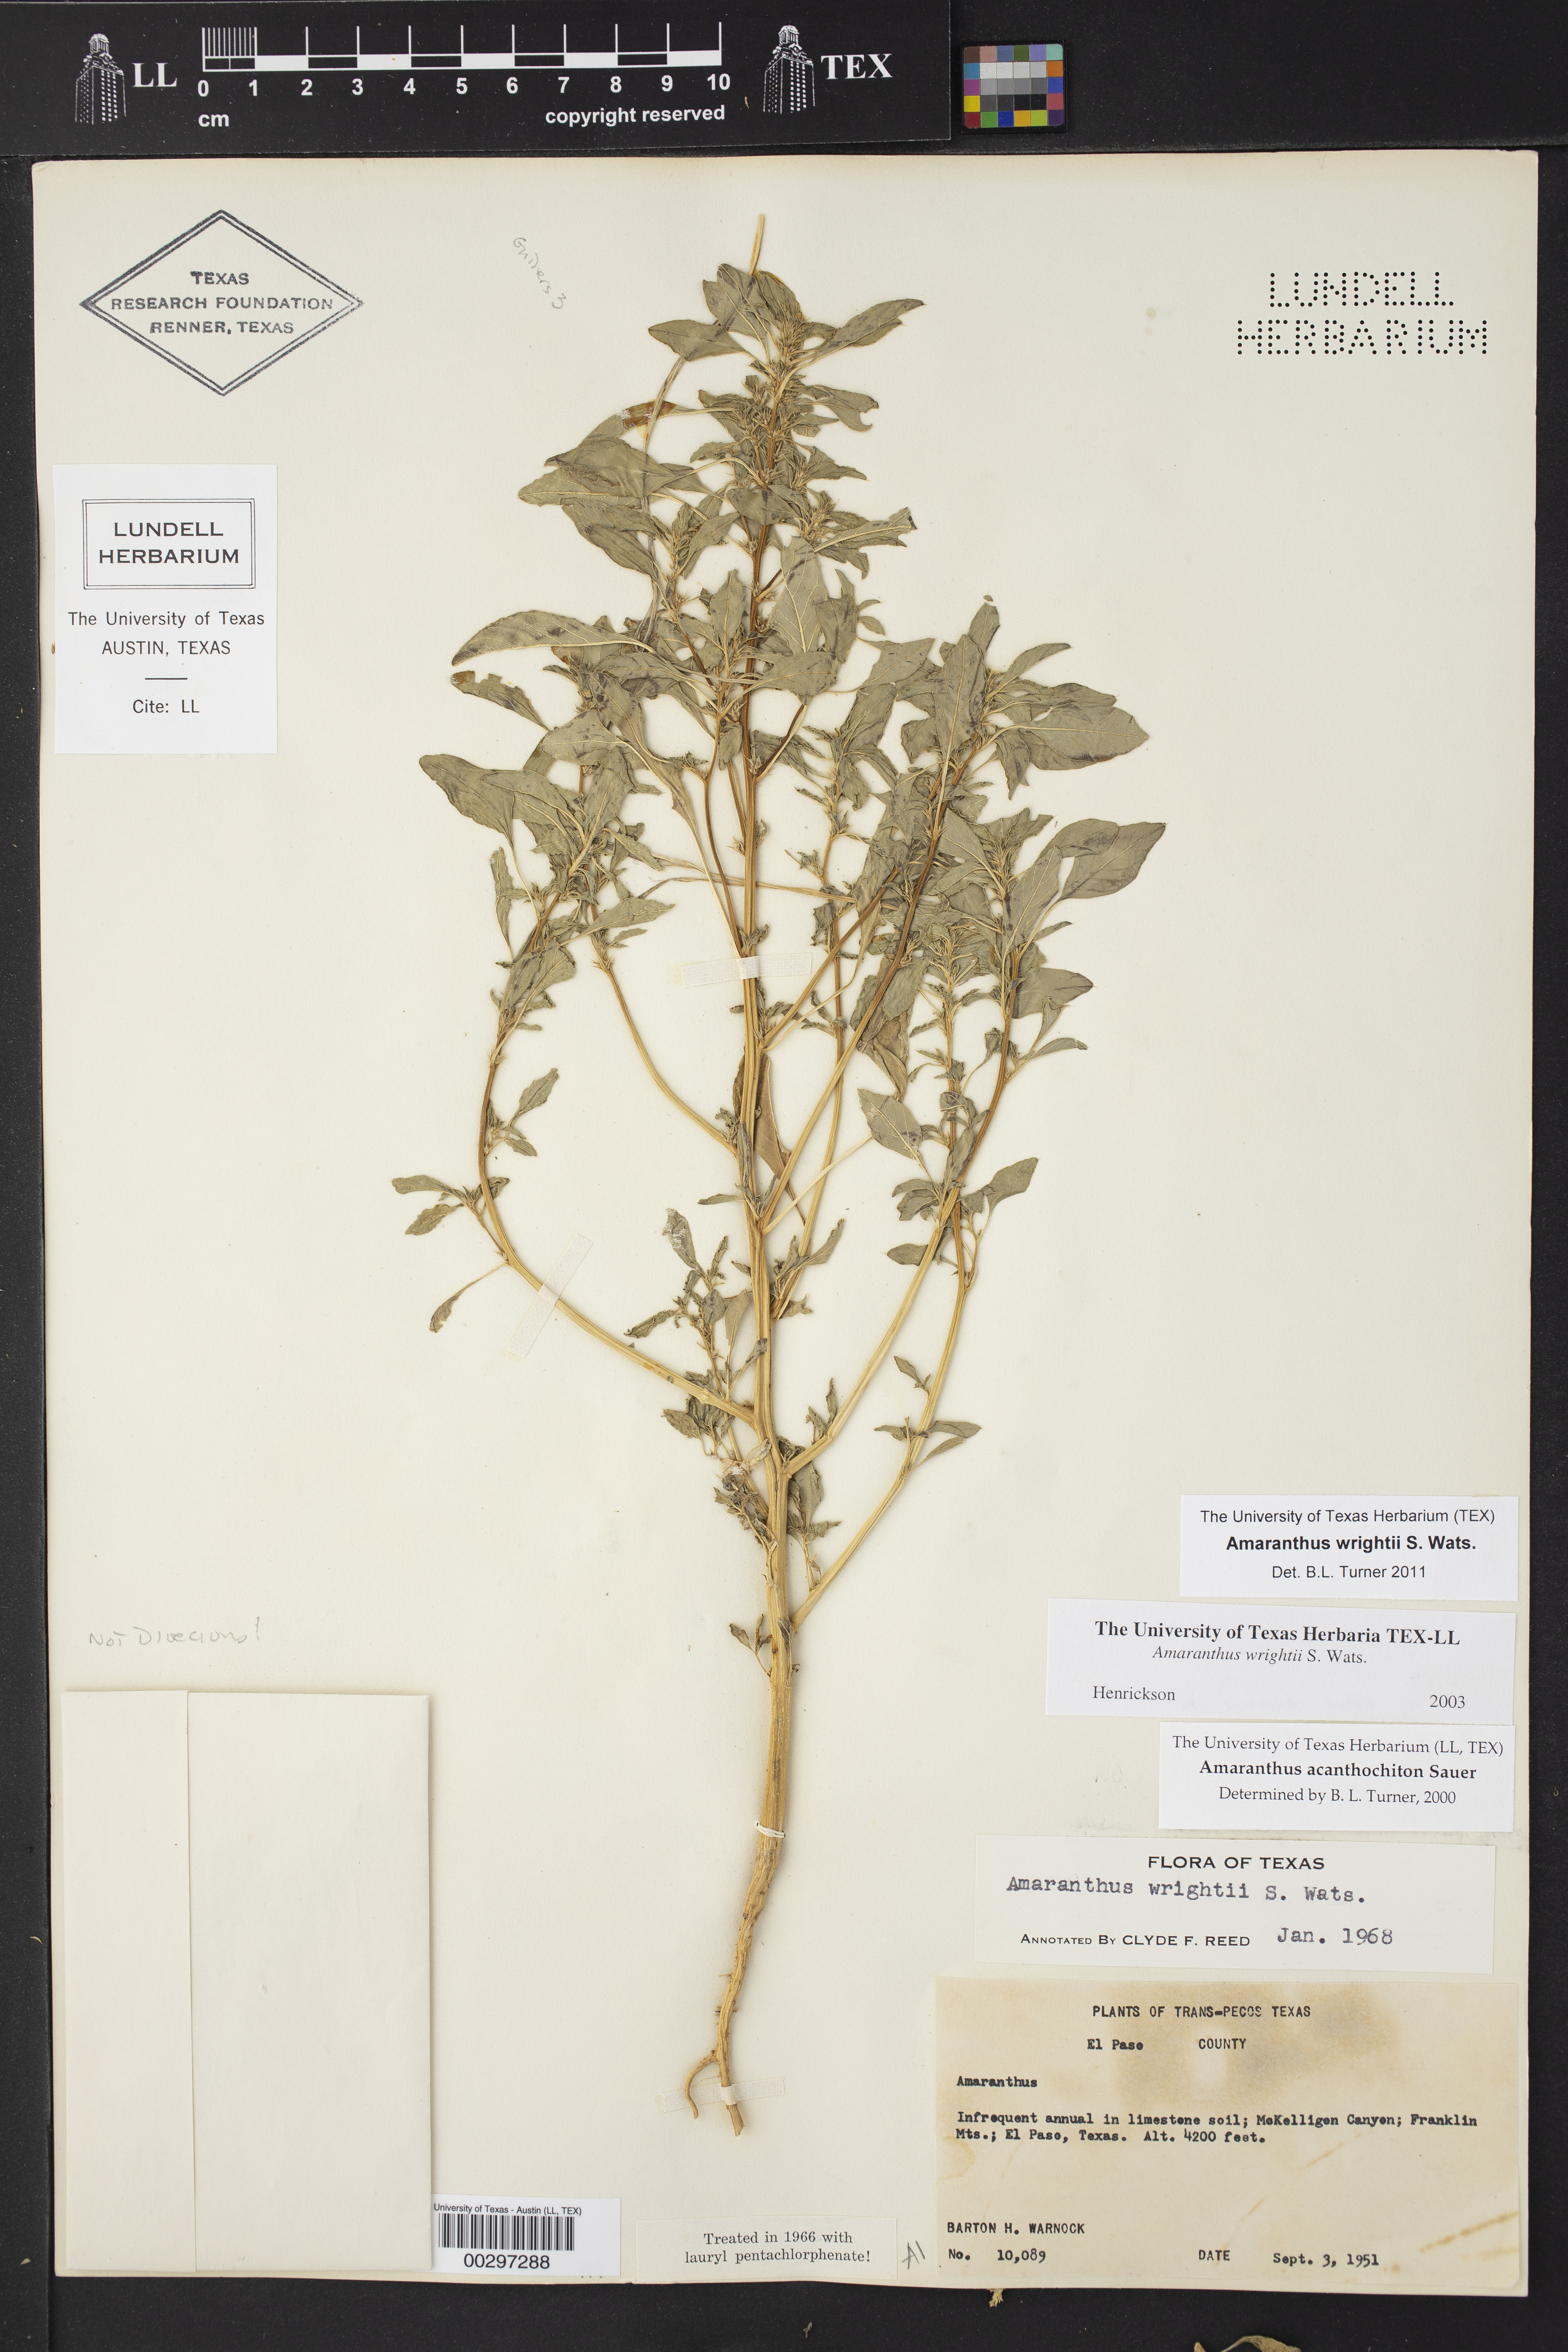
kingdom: Plantae
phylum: Tracheophyta
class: Magnoliopsida
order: Caryophyllales
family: Amaranthaceae
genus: Amaranthus
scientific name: Amaranthus wrightii
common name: Wright's amaranth
